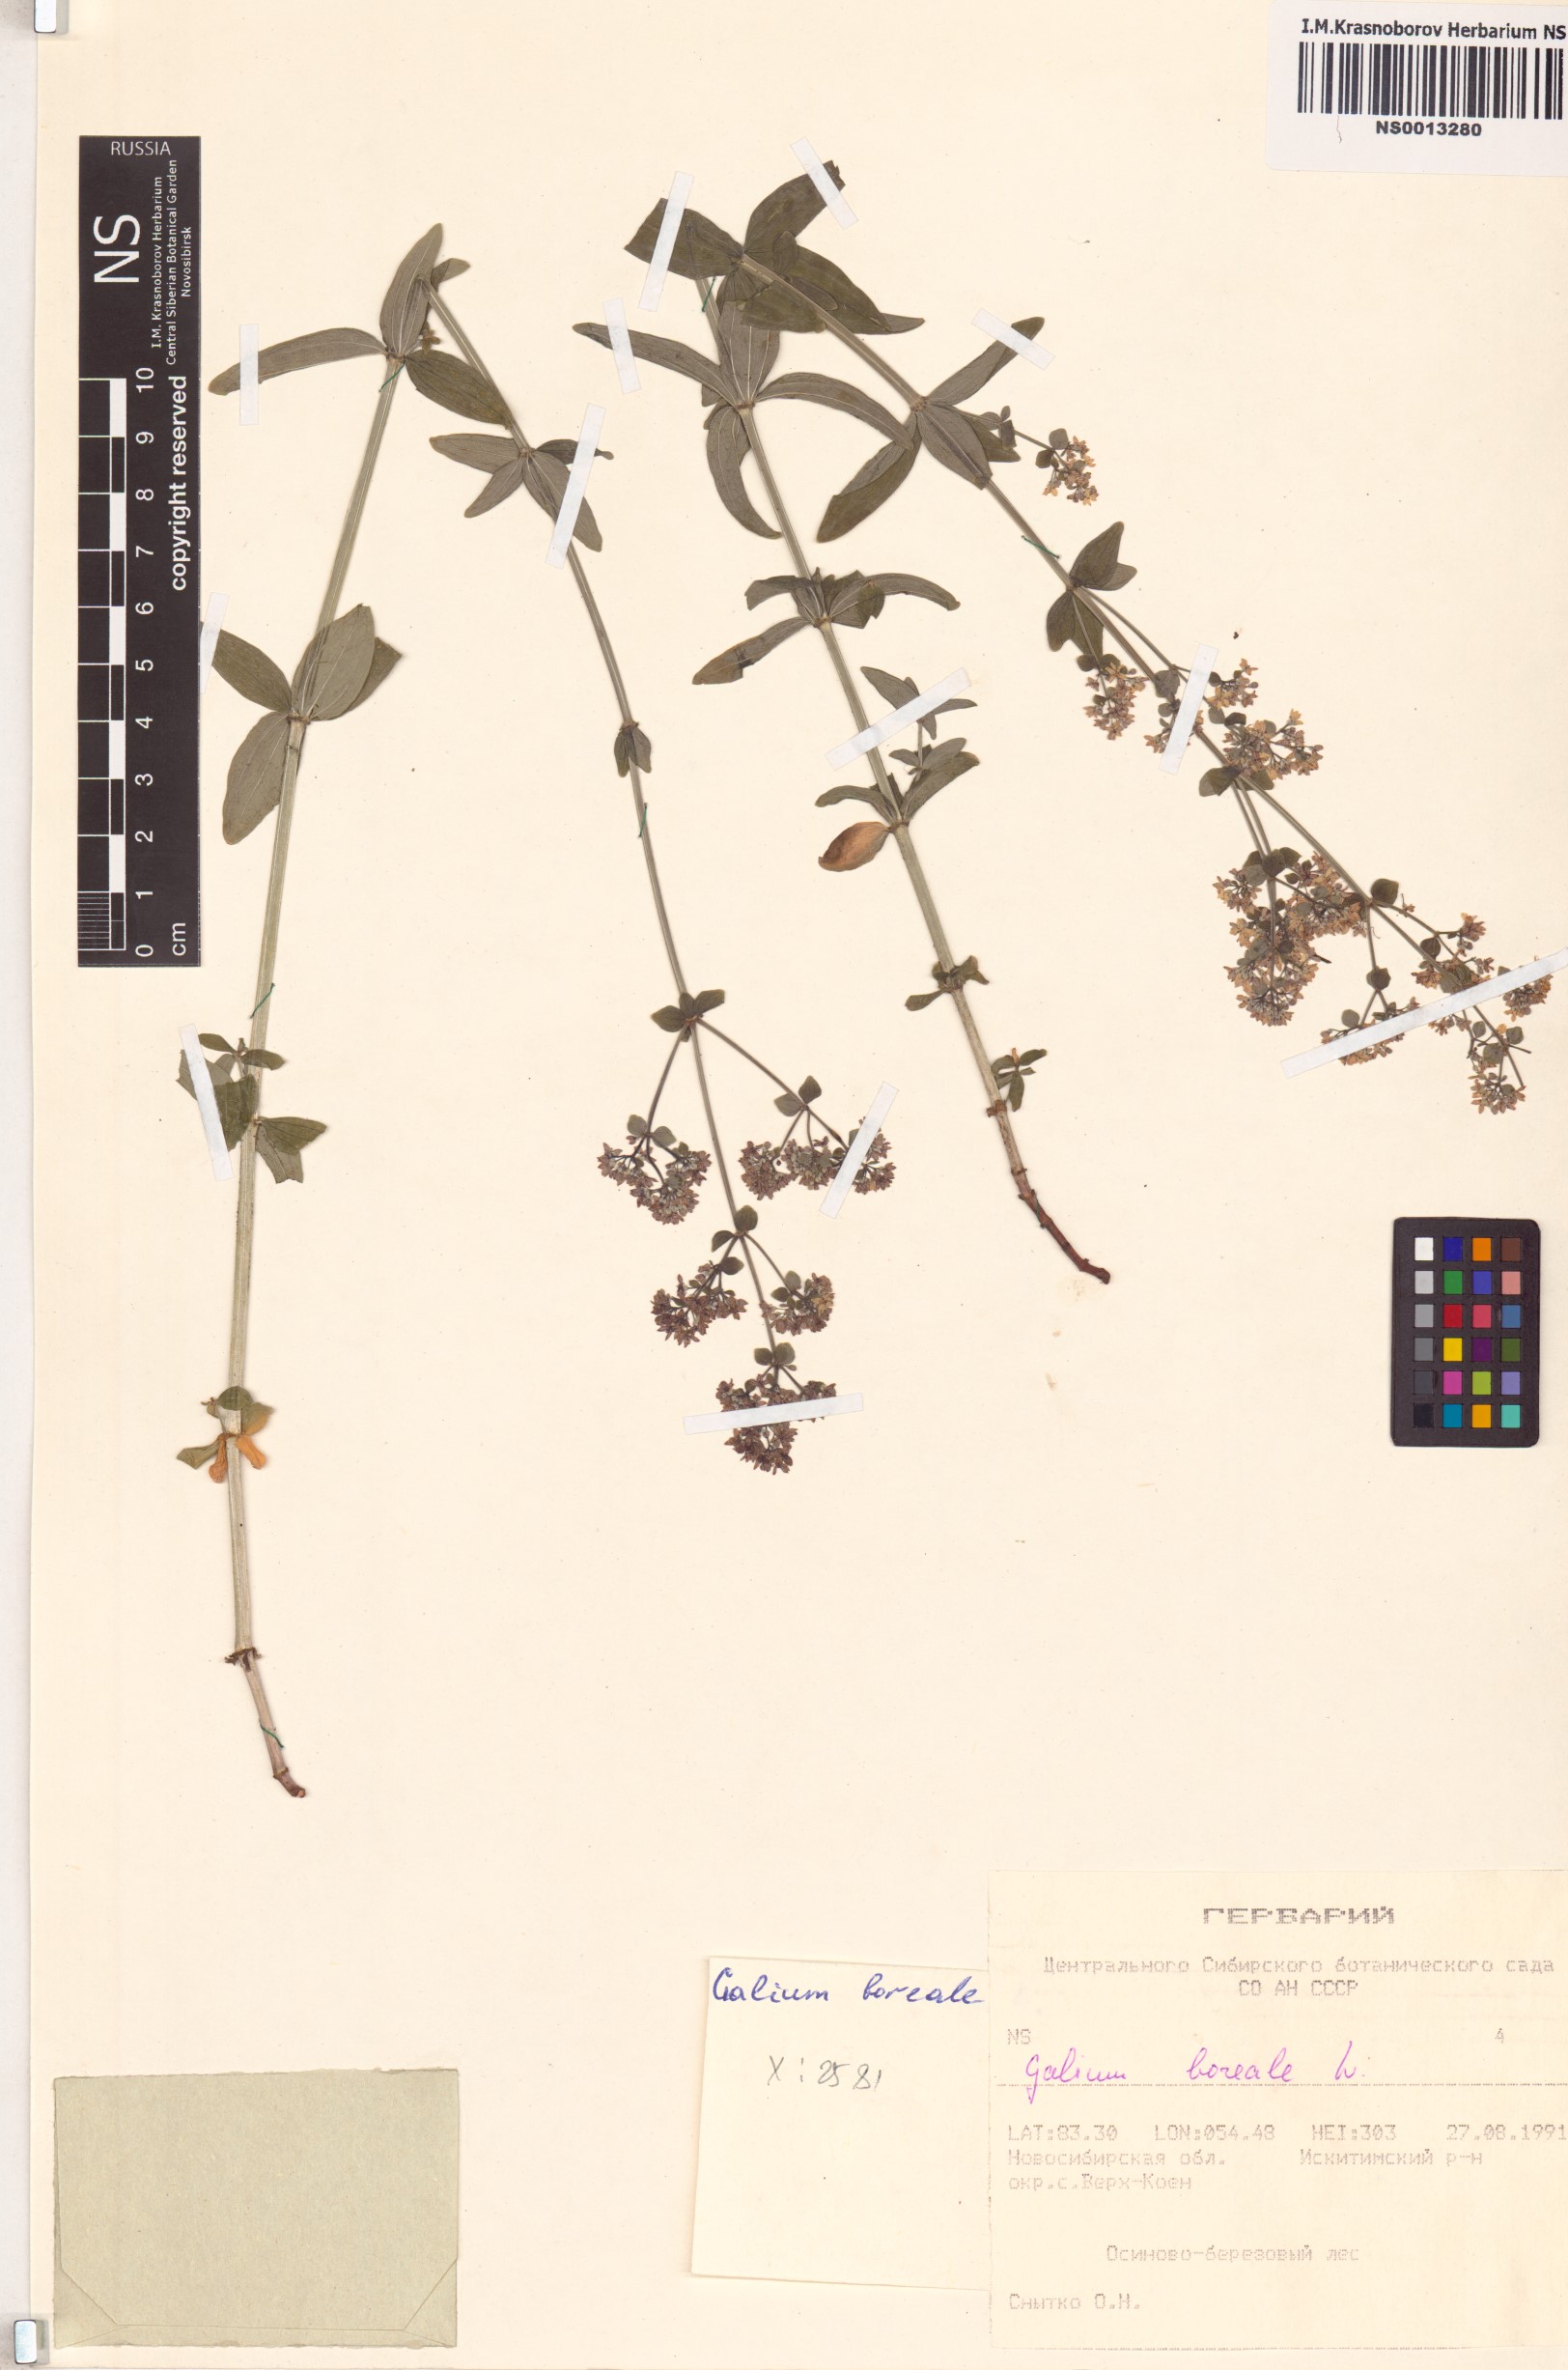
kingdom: Plantae
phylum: Tracheophyta
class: Magnoliopsida
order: Gentianales
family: Rubiaceae
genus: Galium
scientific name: Galium boreale
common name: Northern bedstraw
